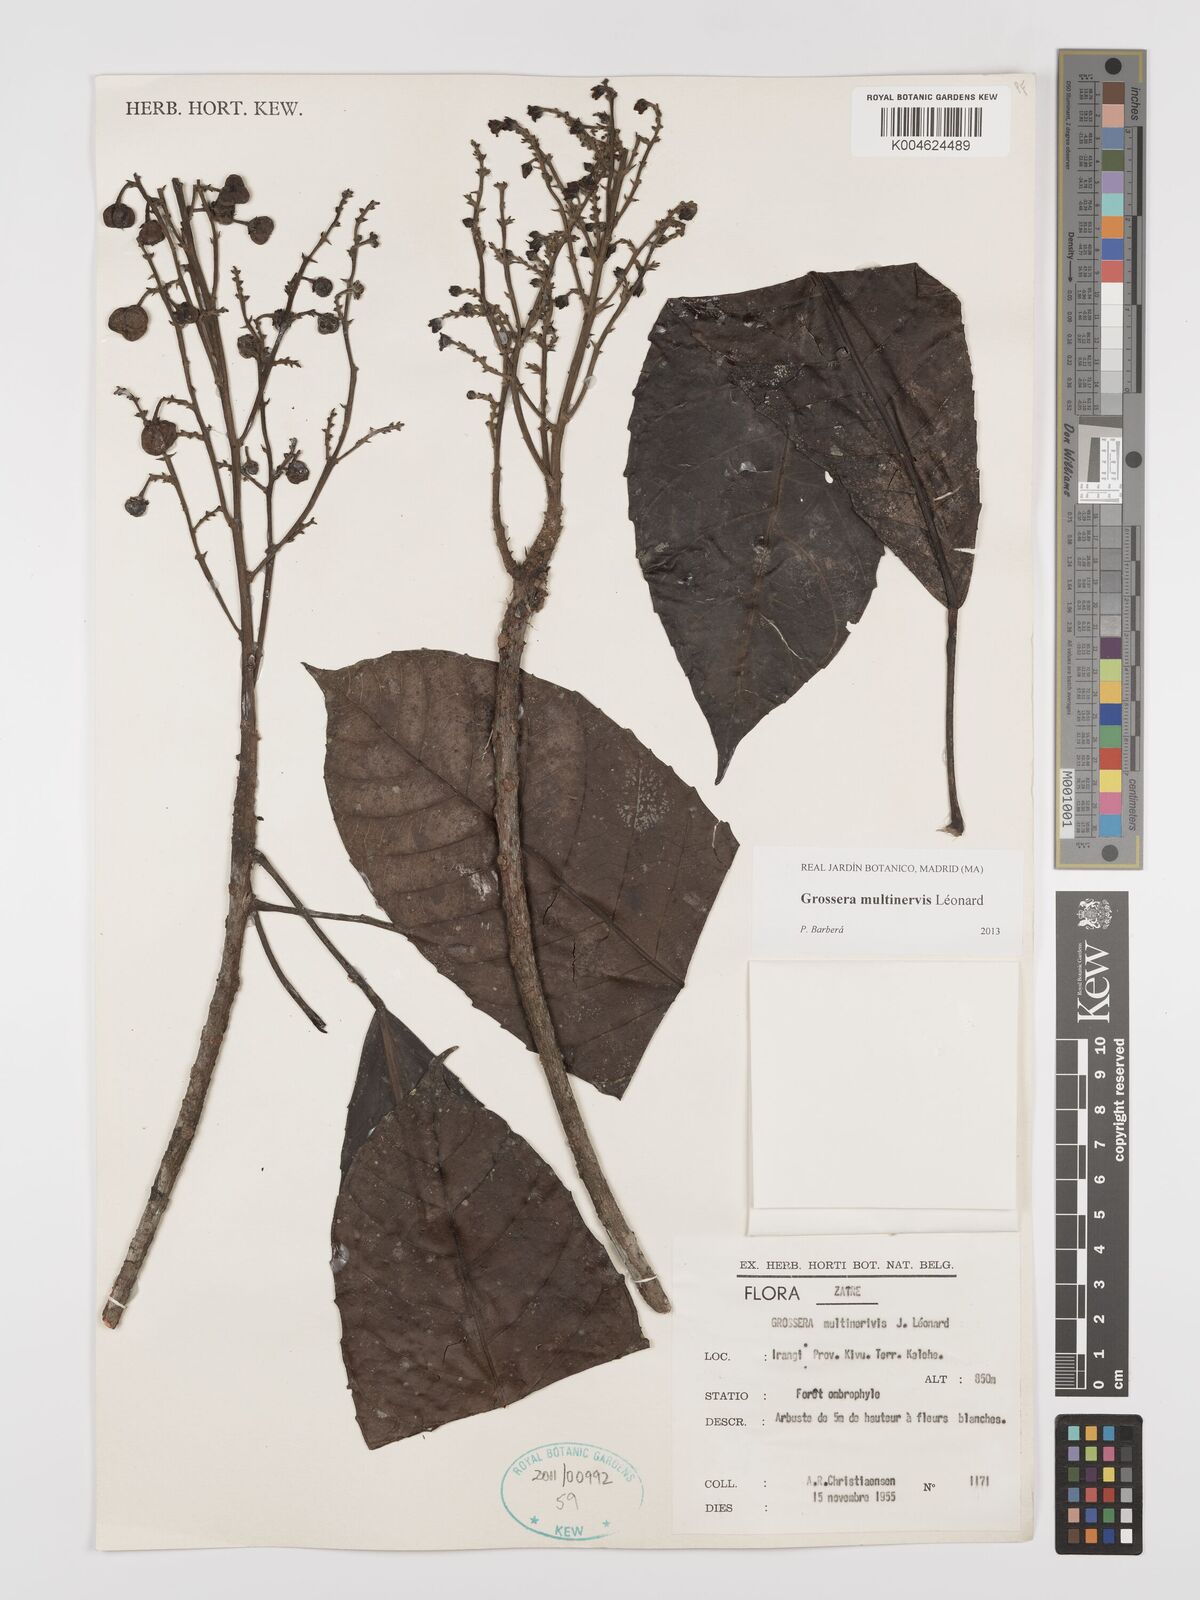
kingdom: Plantae
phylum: Tracheophyta
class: Magnoliopsida
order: Malpighiales
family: Euphorbiaceae
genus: Grossera
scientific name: Grossera multinervis
